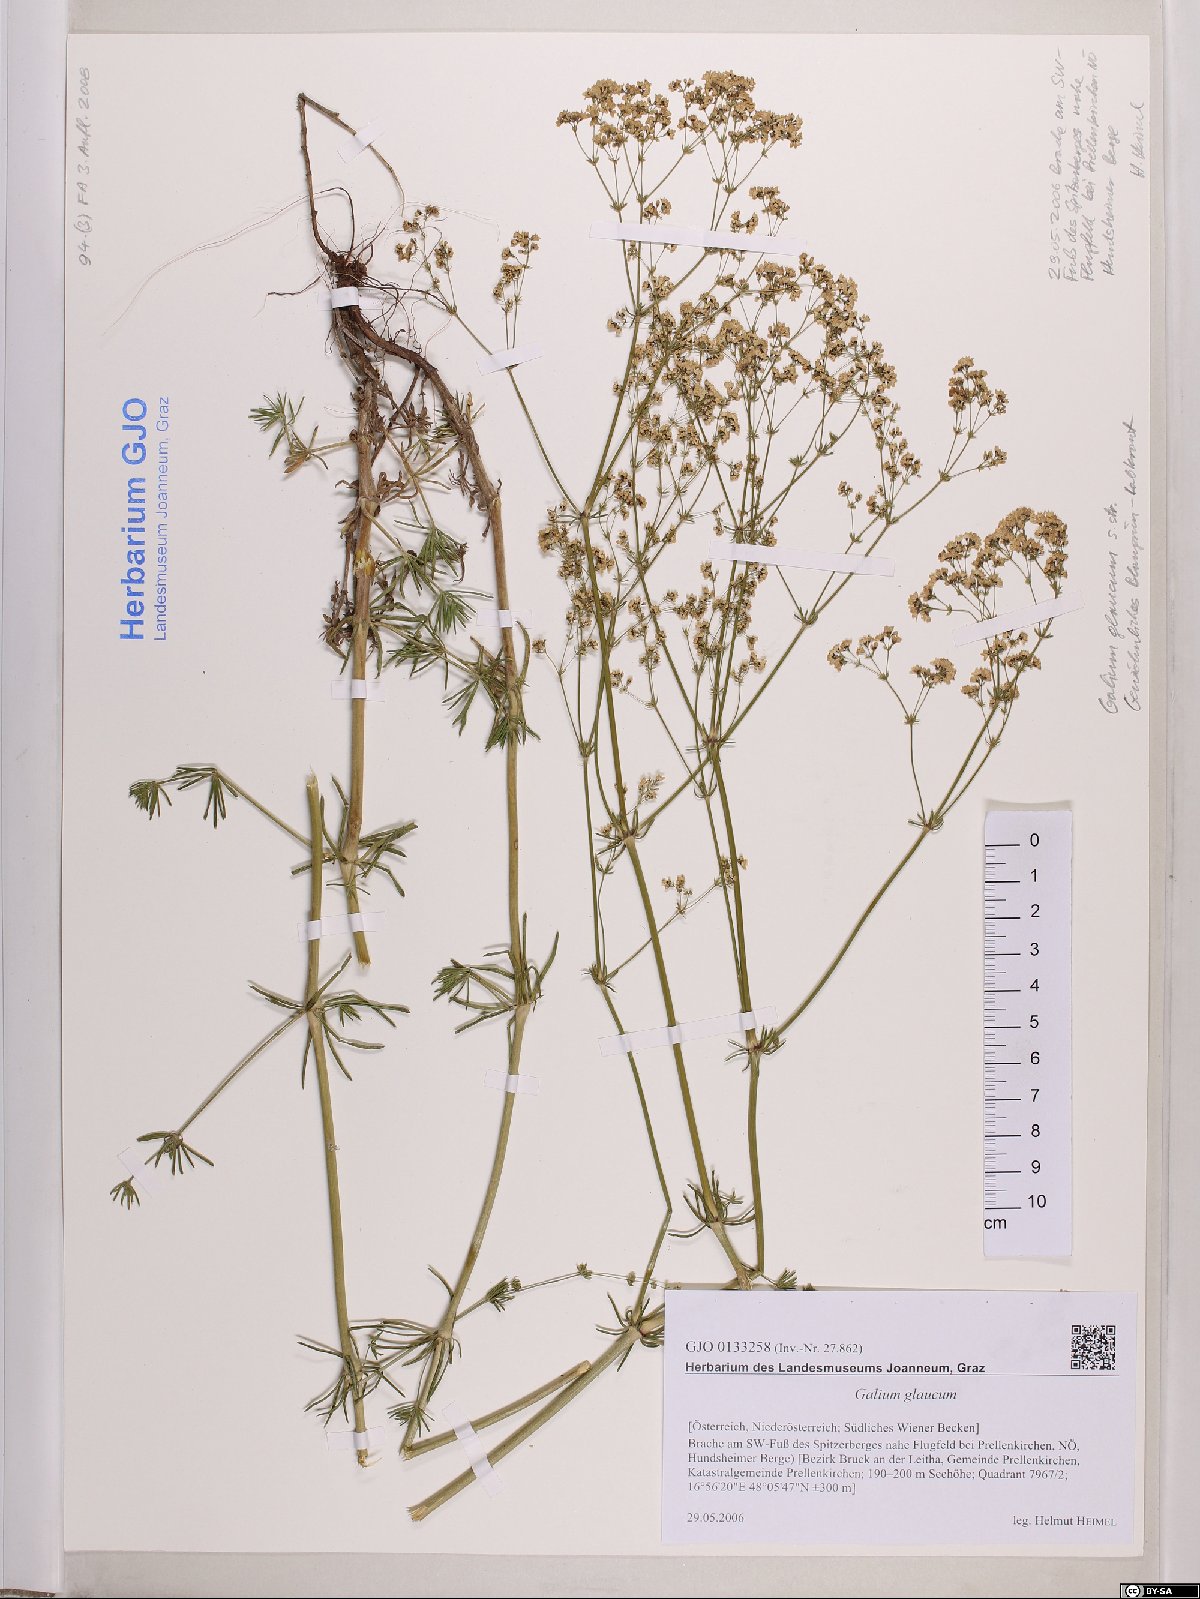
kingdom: Plantae
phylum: Tracheophyta
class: Magnoliopsida
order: Gentianales
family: Rubiaceae
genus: Galium
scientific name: Galium glaucum
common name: Waxy bedstraw
